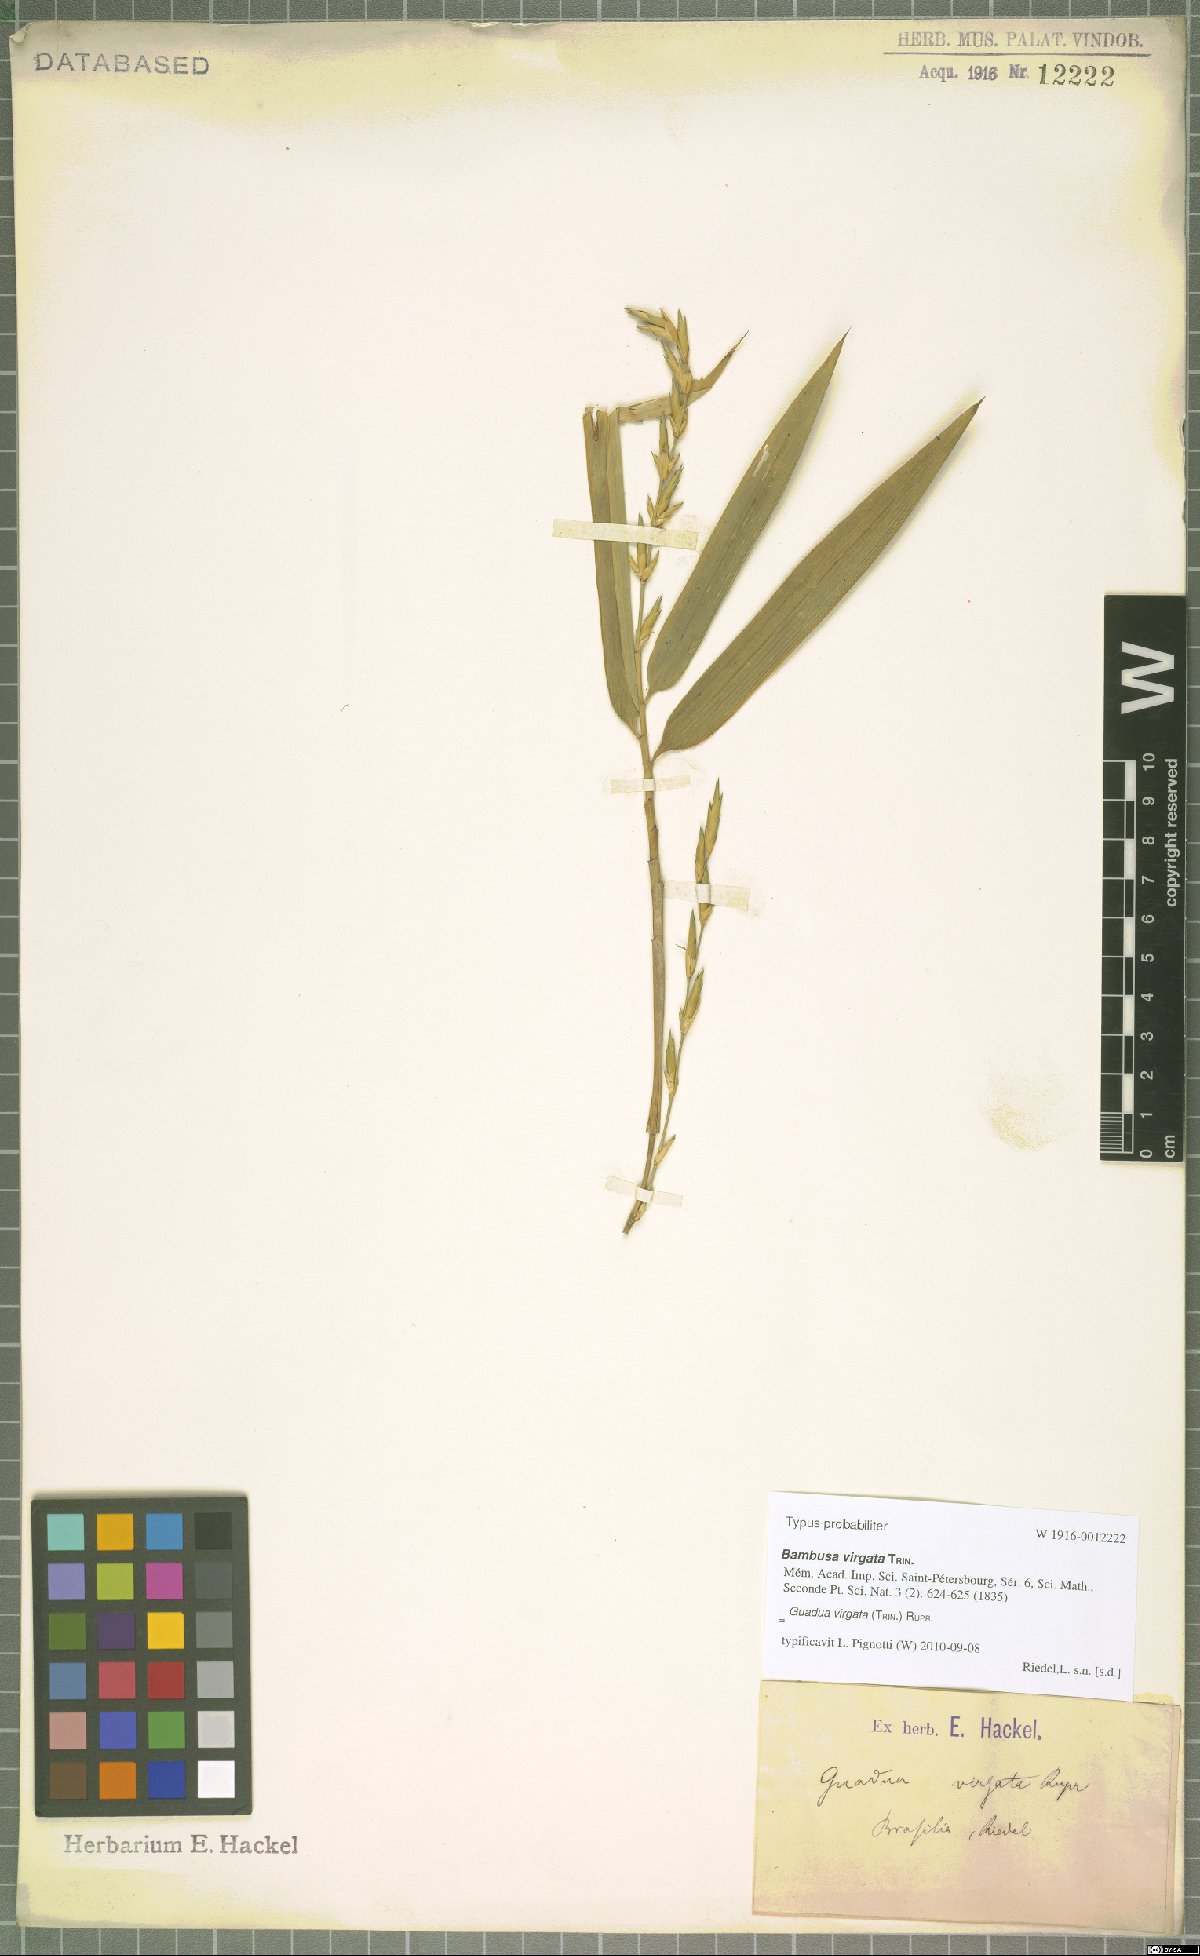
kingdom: Plantae
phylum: Tracheophyta
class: Liliopsida
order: Poales
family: Poaceae
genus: Guadua
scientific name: Guadua virgata
